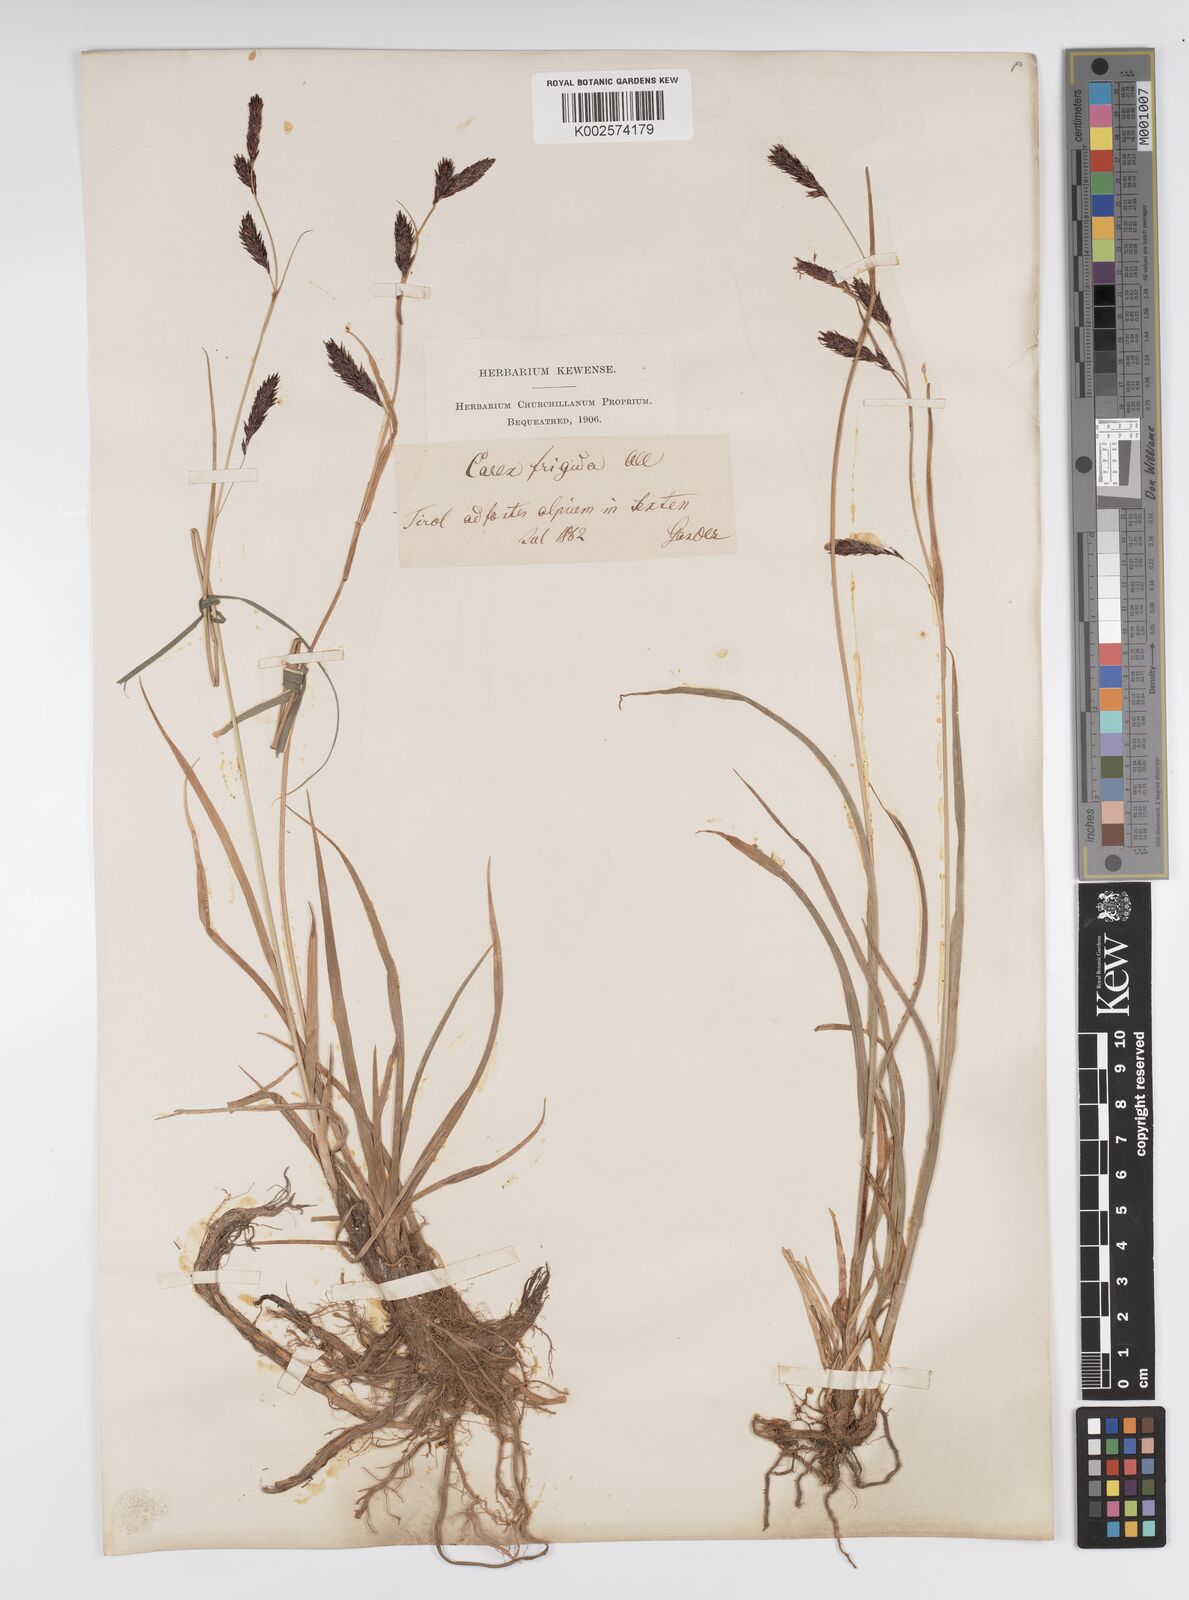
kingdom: Plantae
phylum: Tracheophyta
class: Liliopsida
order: Poales
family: Cyperaceae
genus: Carex
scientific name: Carex frigida
